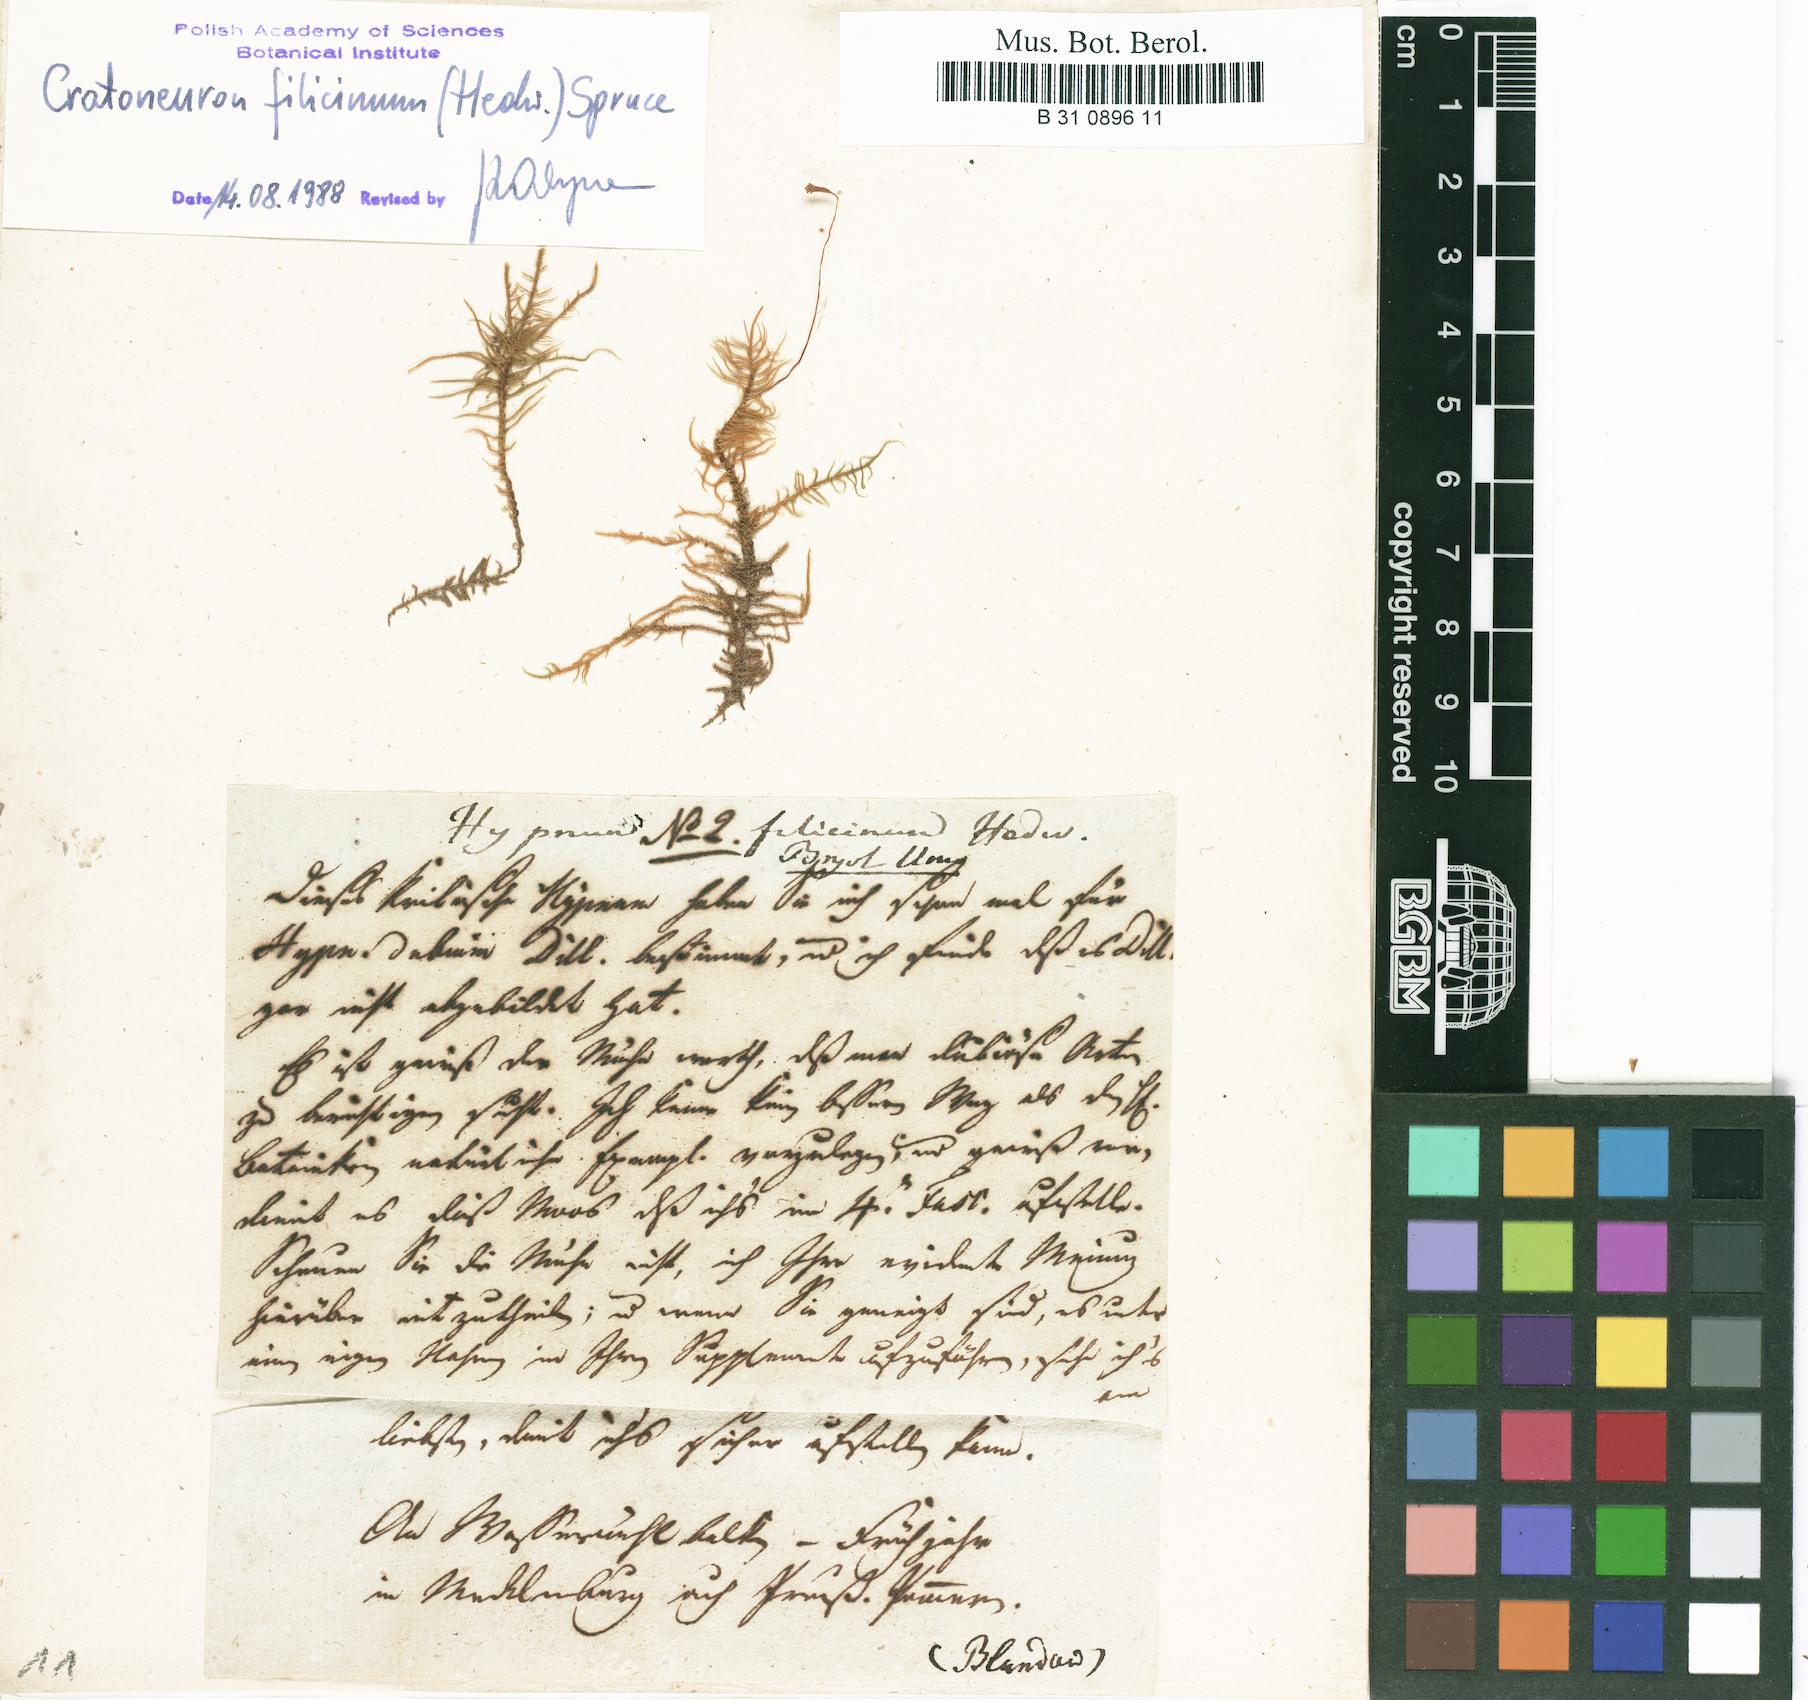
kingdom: Plantae
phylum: Bryophyta
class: Bryopsida
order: Hypnales
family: Amblystegiaceae
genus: Cratoneuron
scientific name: Cratoneuron filicinum
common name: Fern-leaved hook moss
